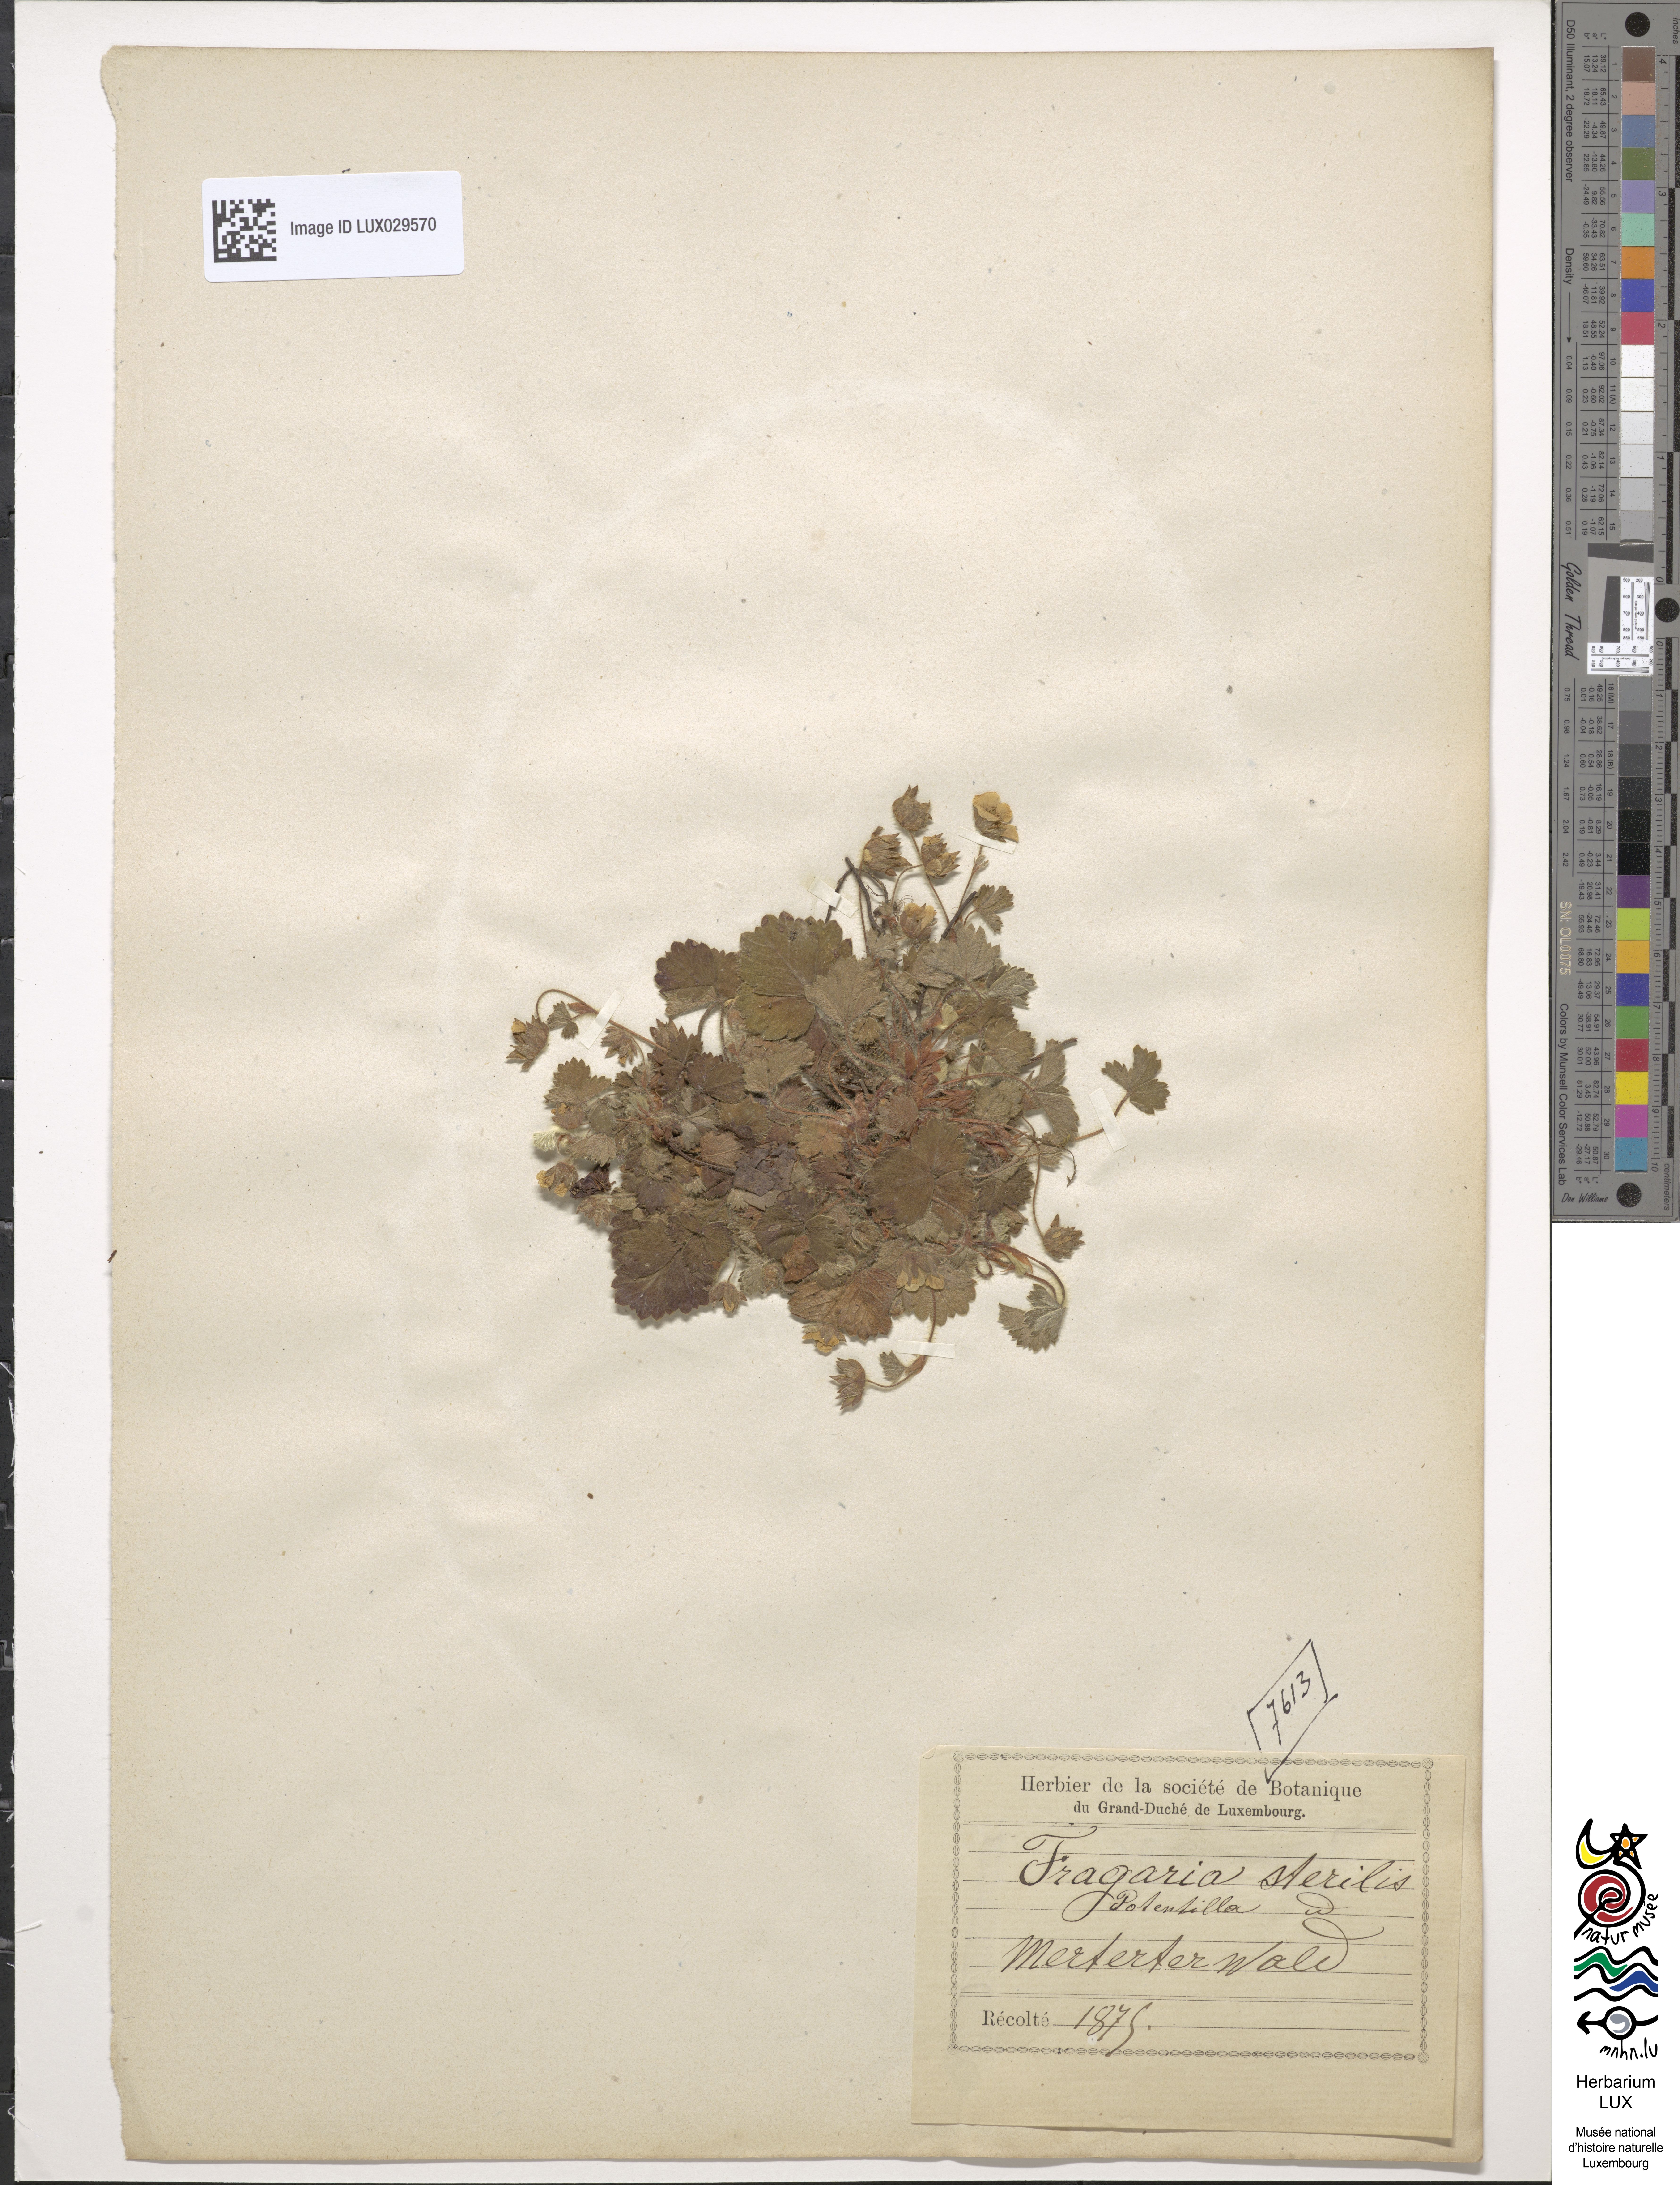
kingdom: Plantae
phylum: Tracheophyta
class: Magnoliopsida
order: Rosales
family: Rosaceae
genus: Potentilla
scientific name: Potentilla sterilis
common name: Barren strawberry
